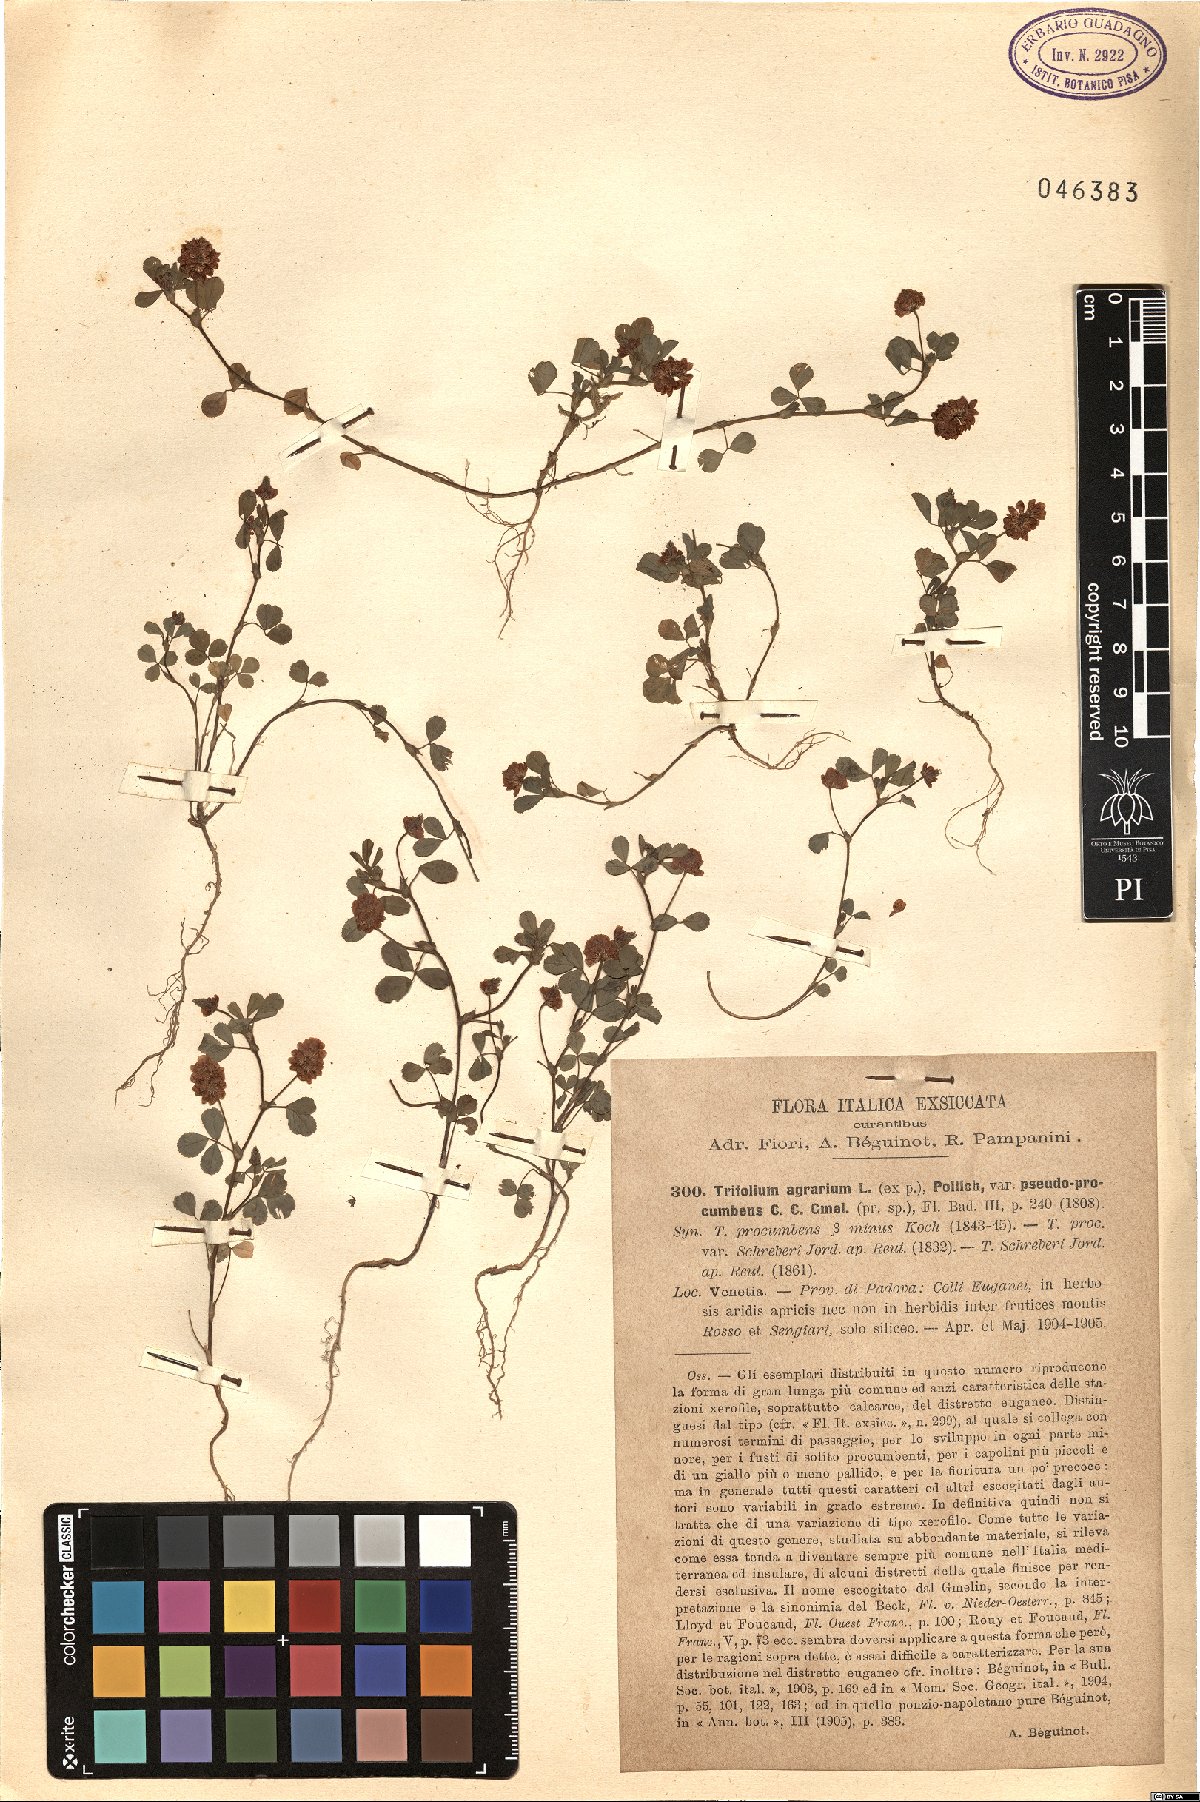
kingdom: Plantae
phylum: Tracheophyta
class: Magnoliopsida
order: Fabales
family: Fabaceae
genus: Trifolium
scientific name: Trifolium aureum
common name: Golden clover
